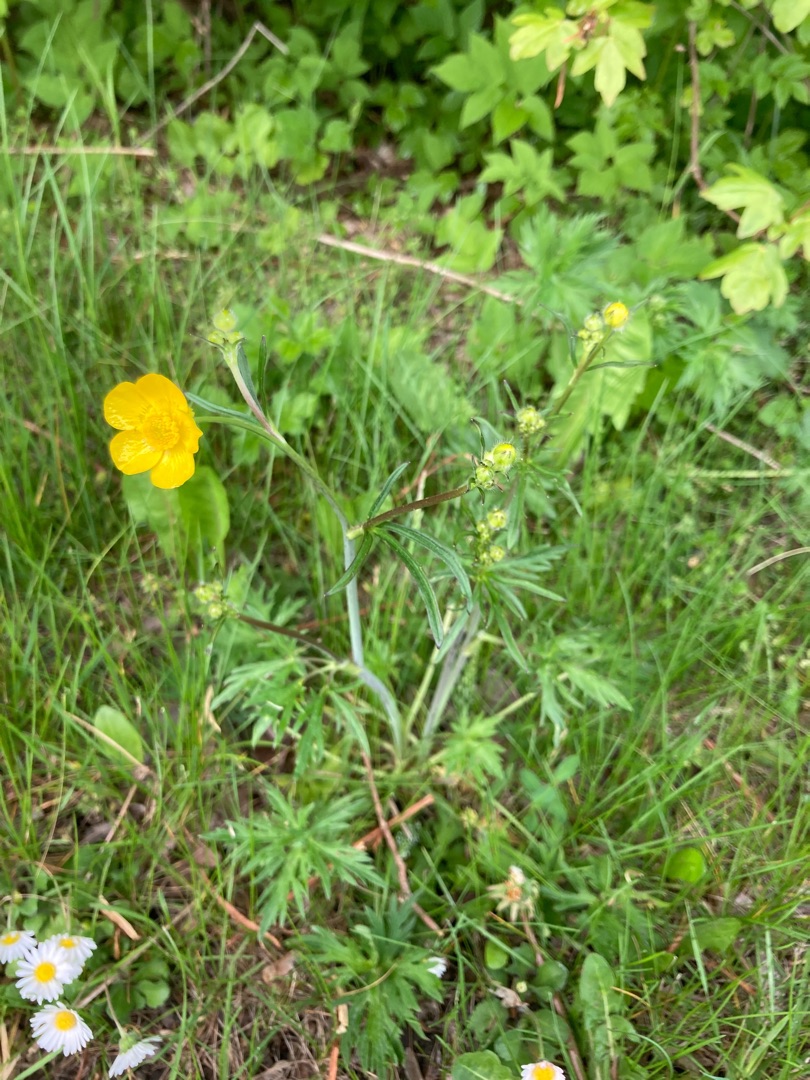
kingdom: Plantae
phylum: Tracheophyta
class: Magnoliopsida
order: Ranunculales
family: Ranunculaceae
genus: Ranunculus
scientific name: Ranunculus acris
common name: Bidende ranunkel
